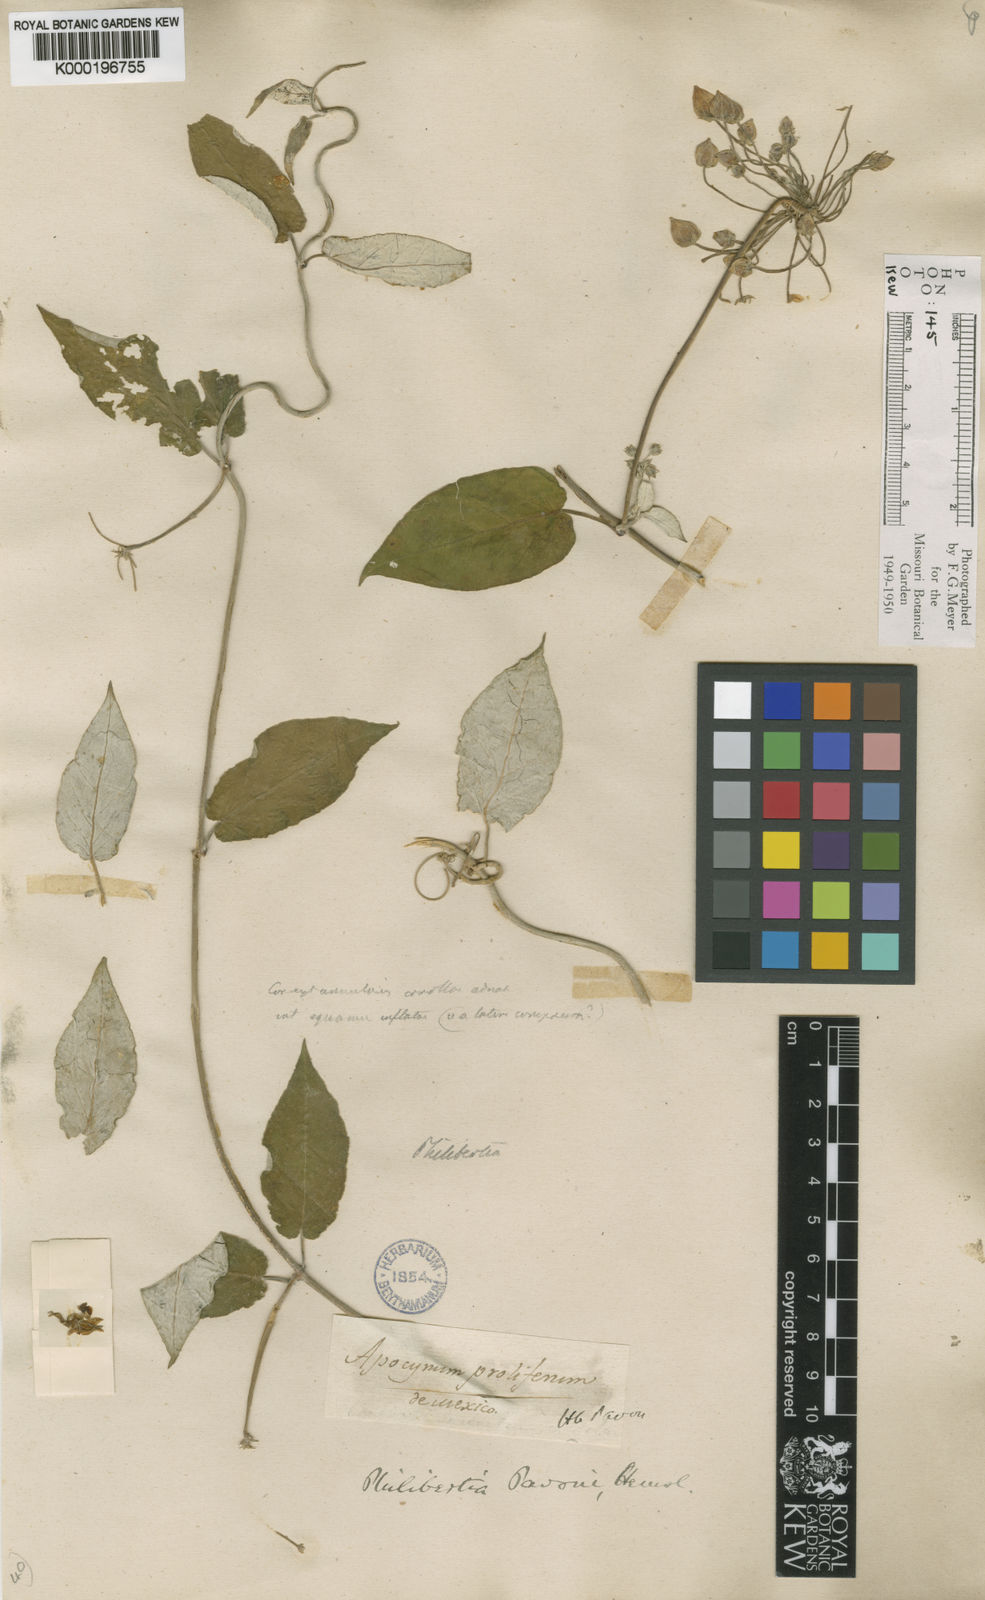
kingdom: Plantae
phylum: Tracheophyta
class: Magnoliopsida
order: Gentianales
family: Apocynaceae
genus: Funastrum
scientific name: Funastrum pannosum
